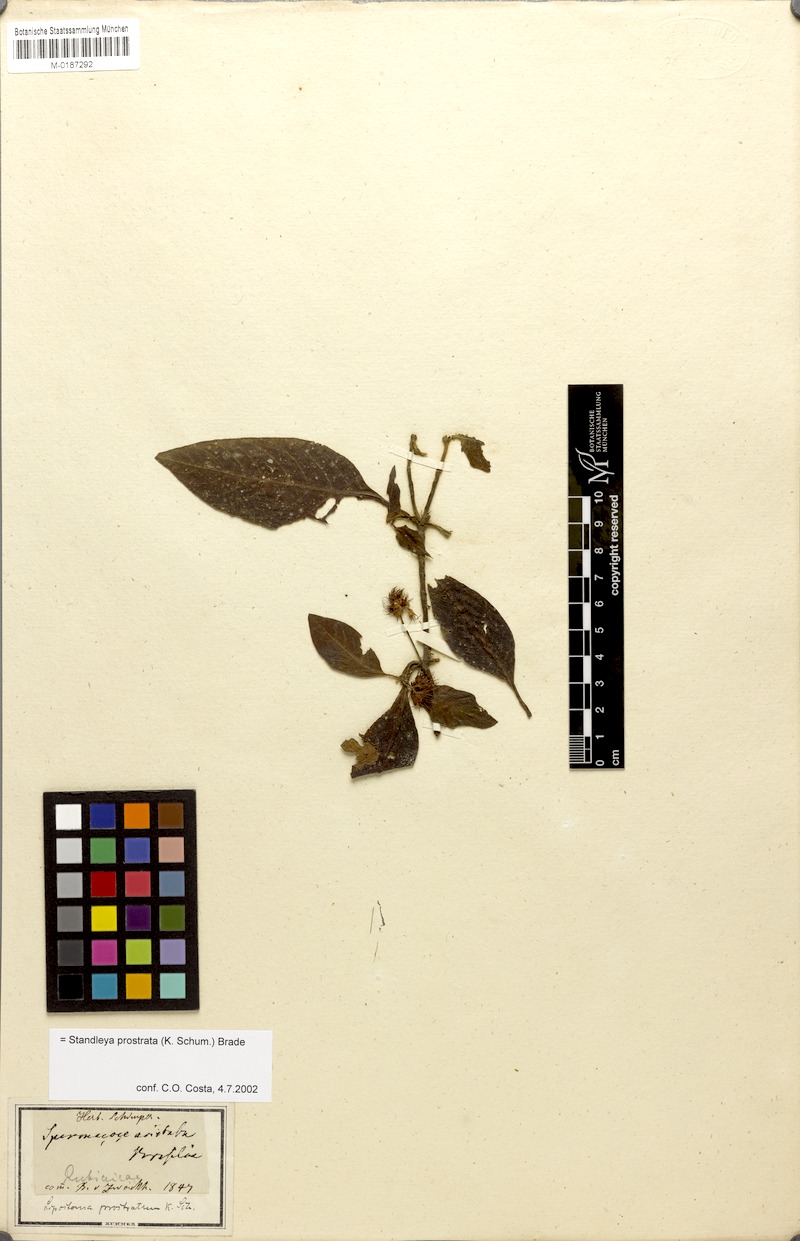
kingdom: Plantae
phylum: Tracheophyta
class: Magnoliopsida
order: Gentianales
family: Rubiaceae
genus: Standleya
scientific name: Standleya prostrata
